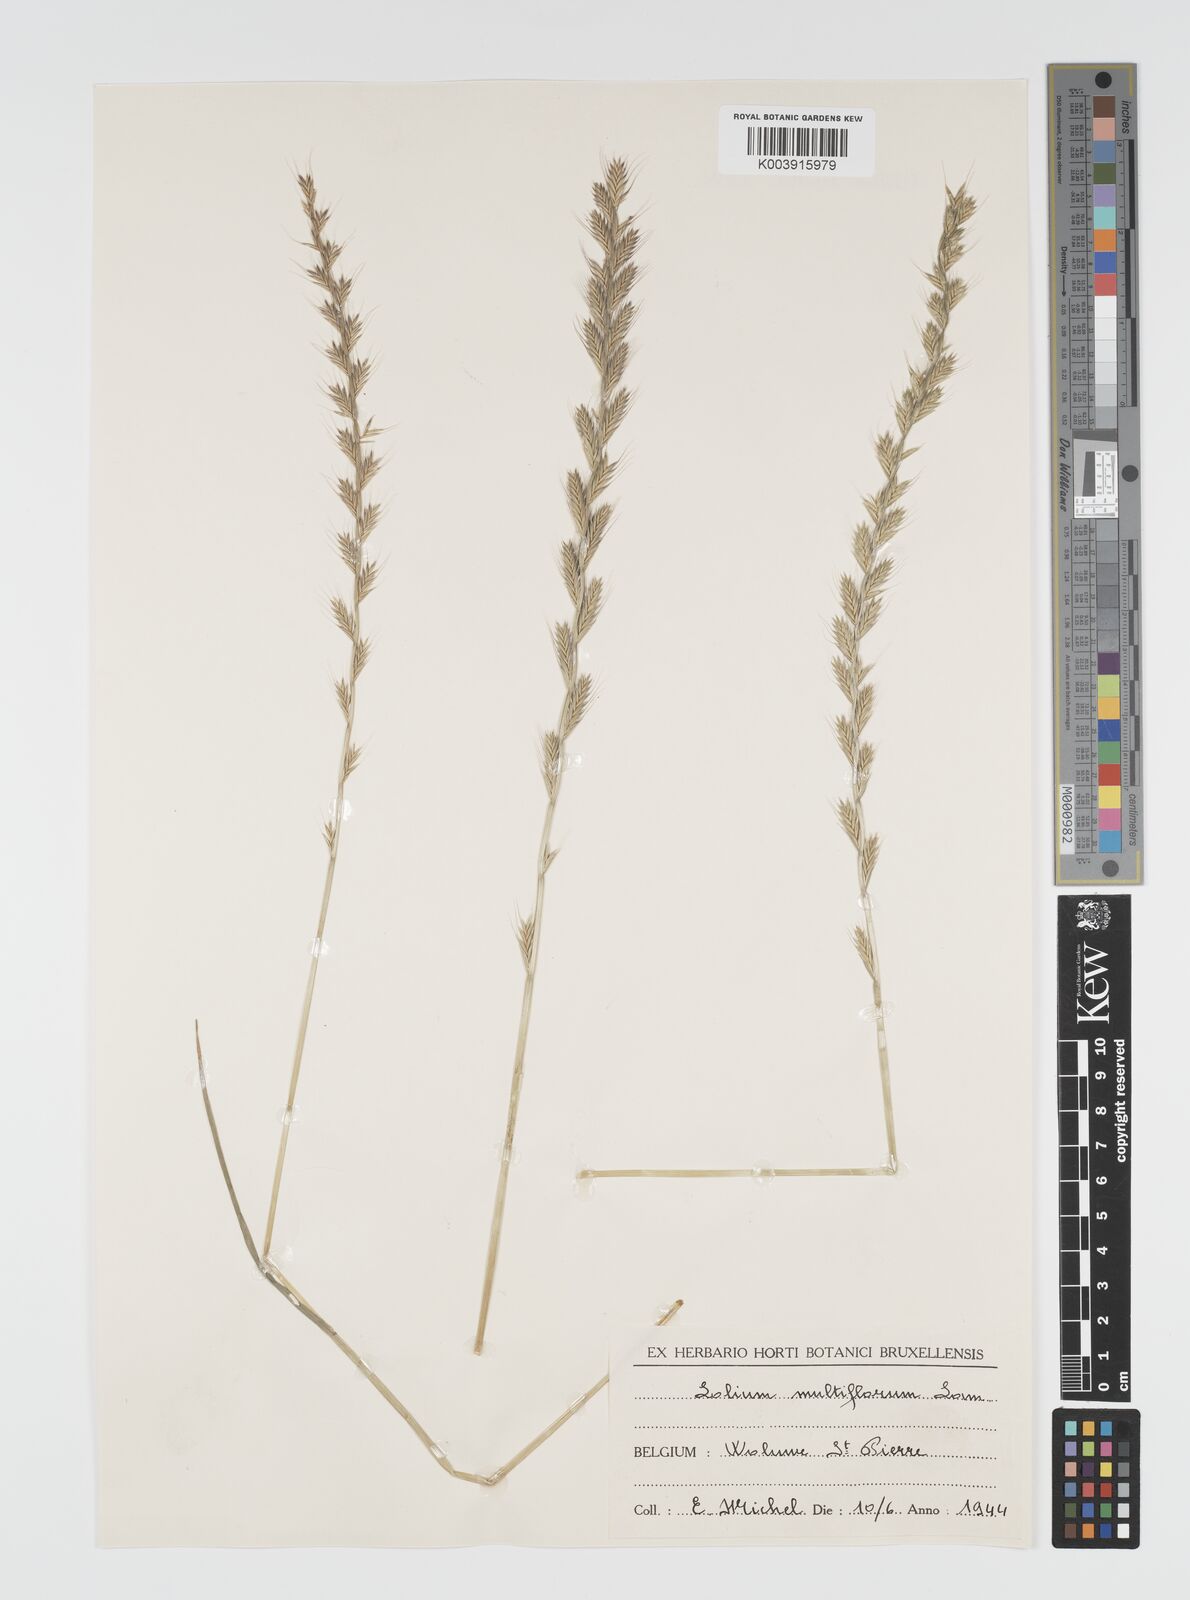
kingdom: Plantae
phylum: Tracheophyta
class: Liliopsida
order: Poales
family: Poaceae
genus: Lolium
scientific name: Lolium multiflorum
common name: Annual ryegrass
